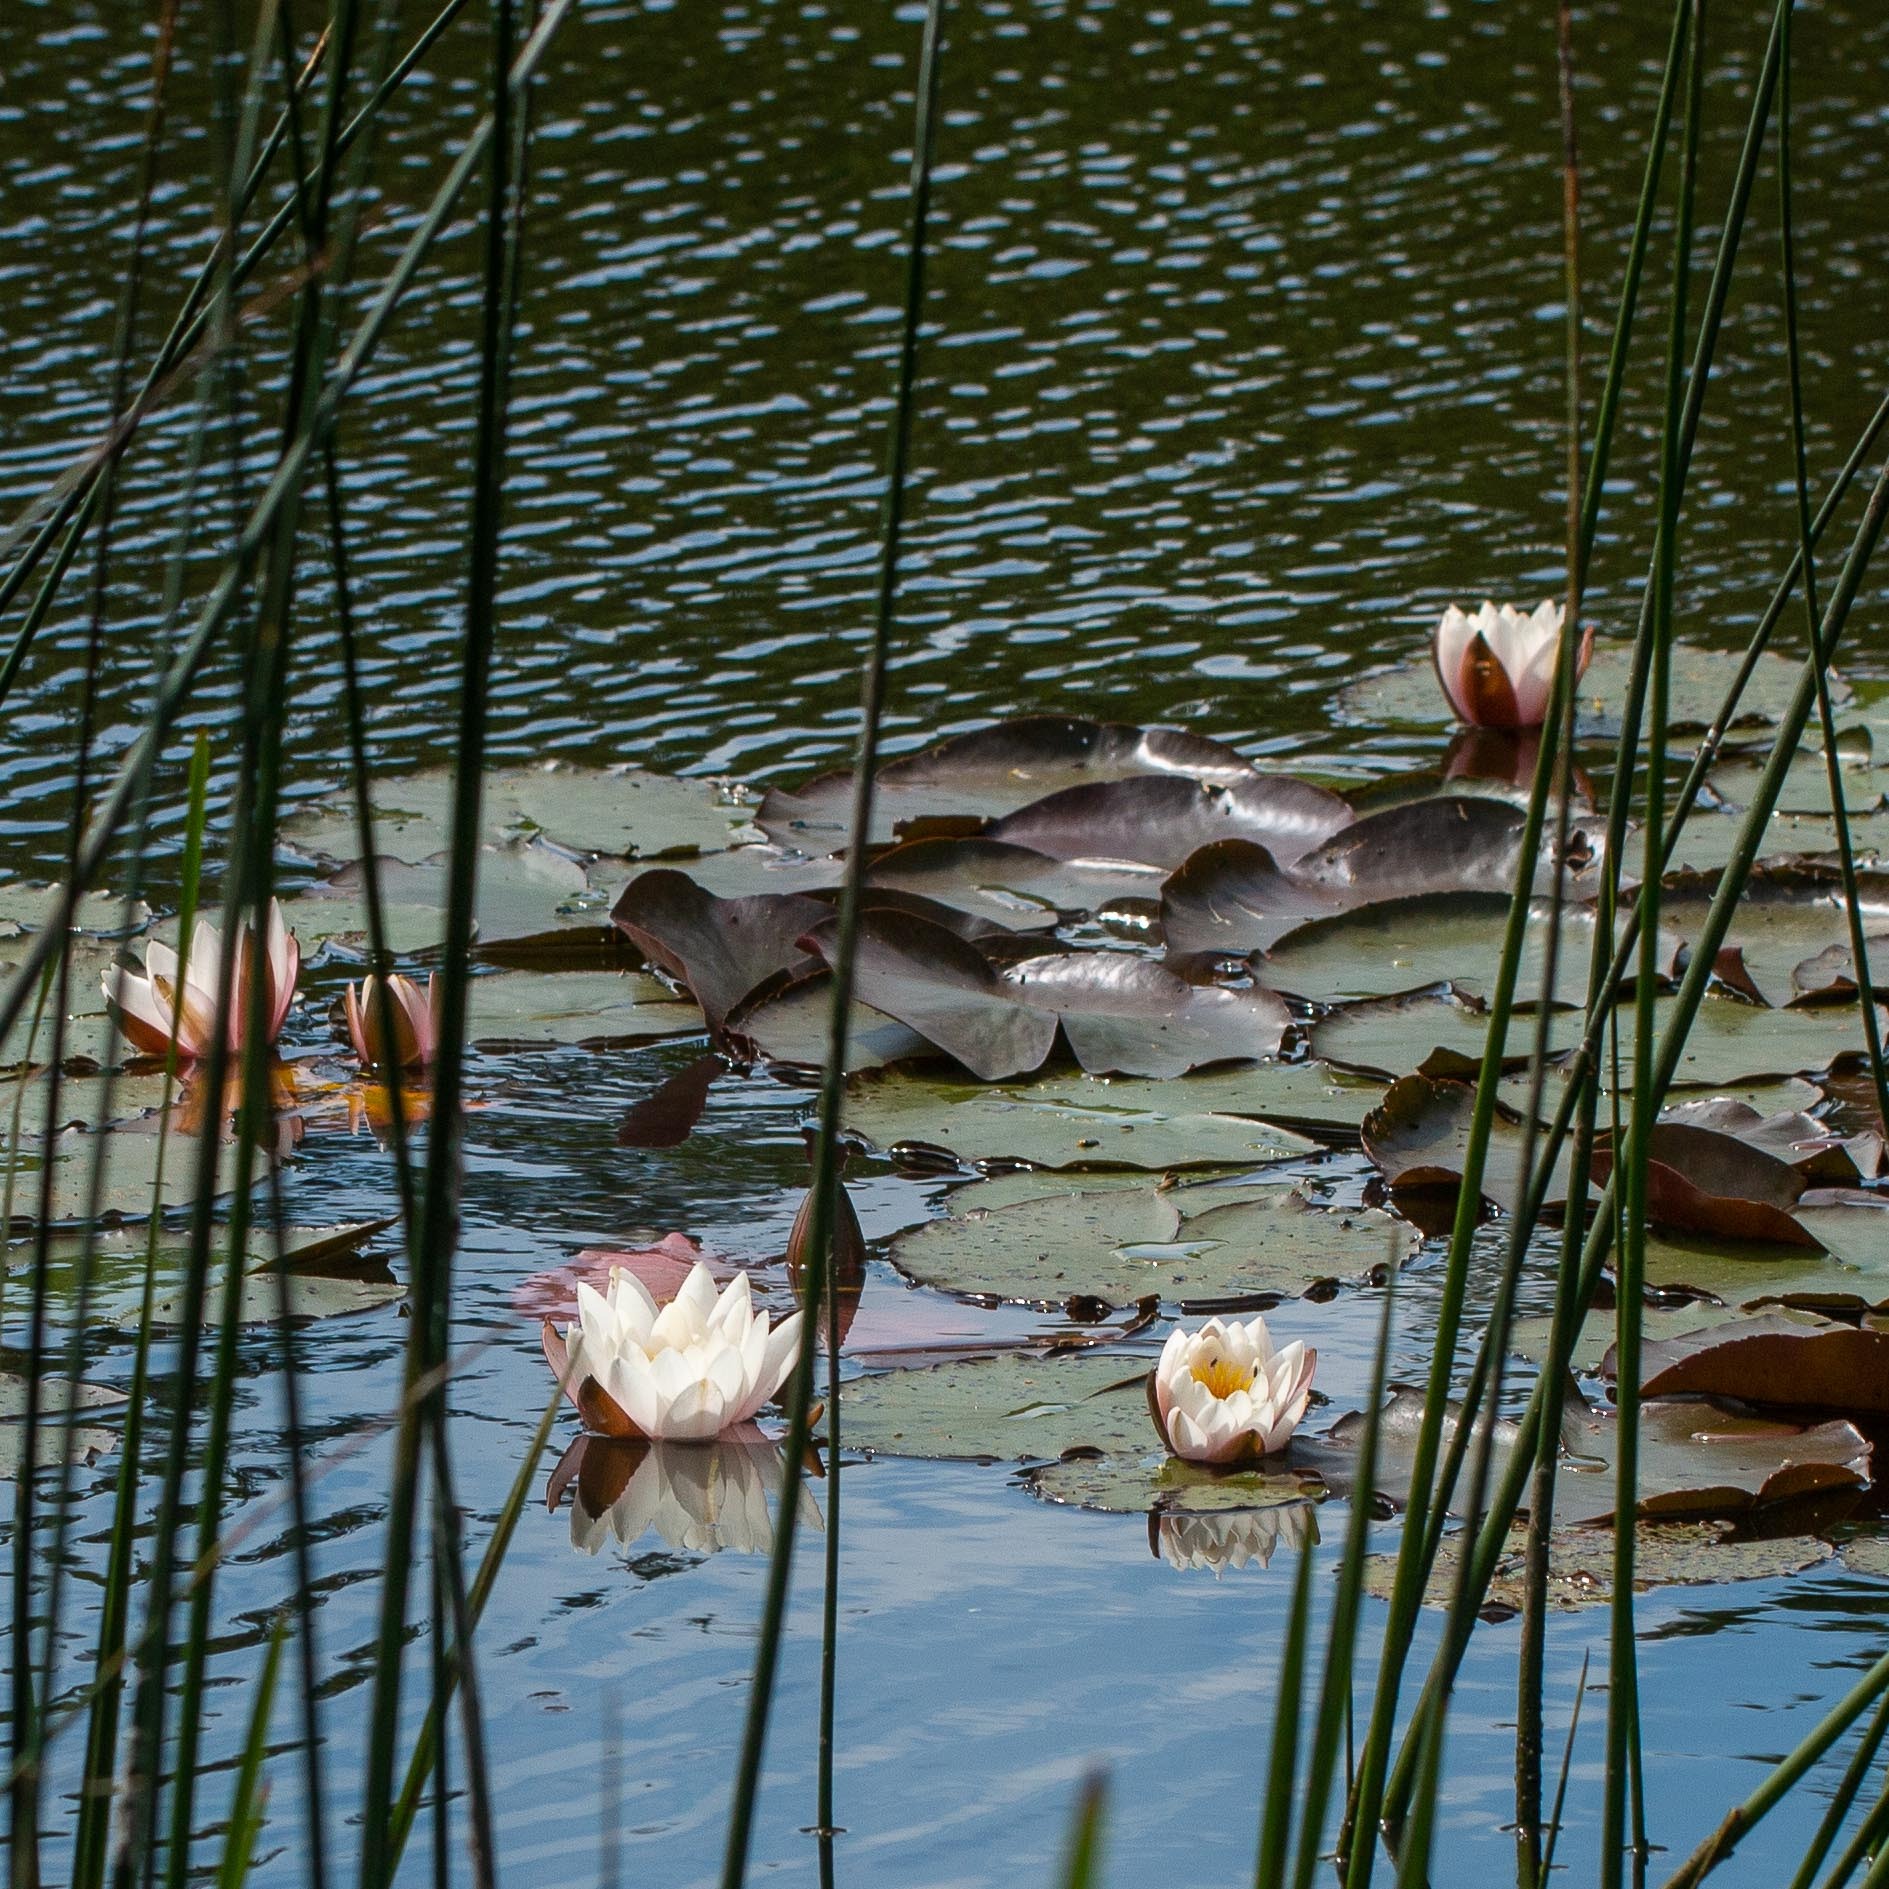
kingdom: Plantae
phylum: Tracheophyta
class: Magnoliopsida
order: Nymphaeales
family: Nymphaeaceae
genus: Nymphaea
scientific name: Nymphaea alba
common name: Hvid åkande
